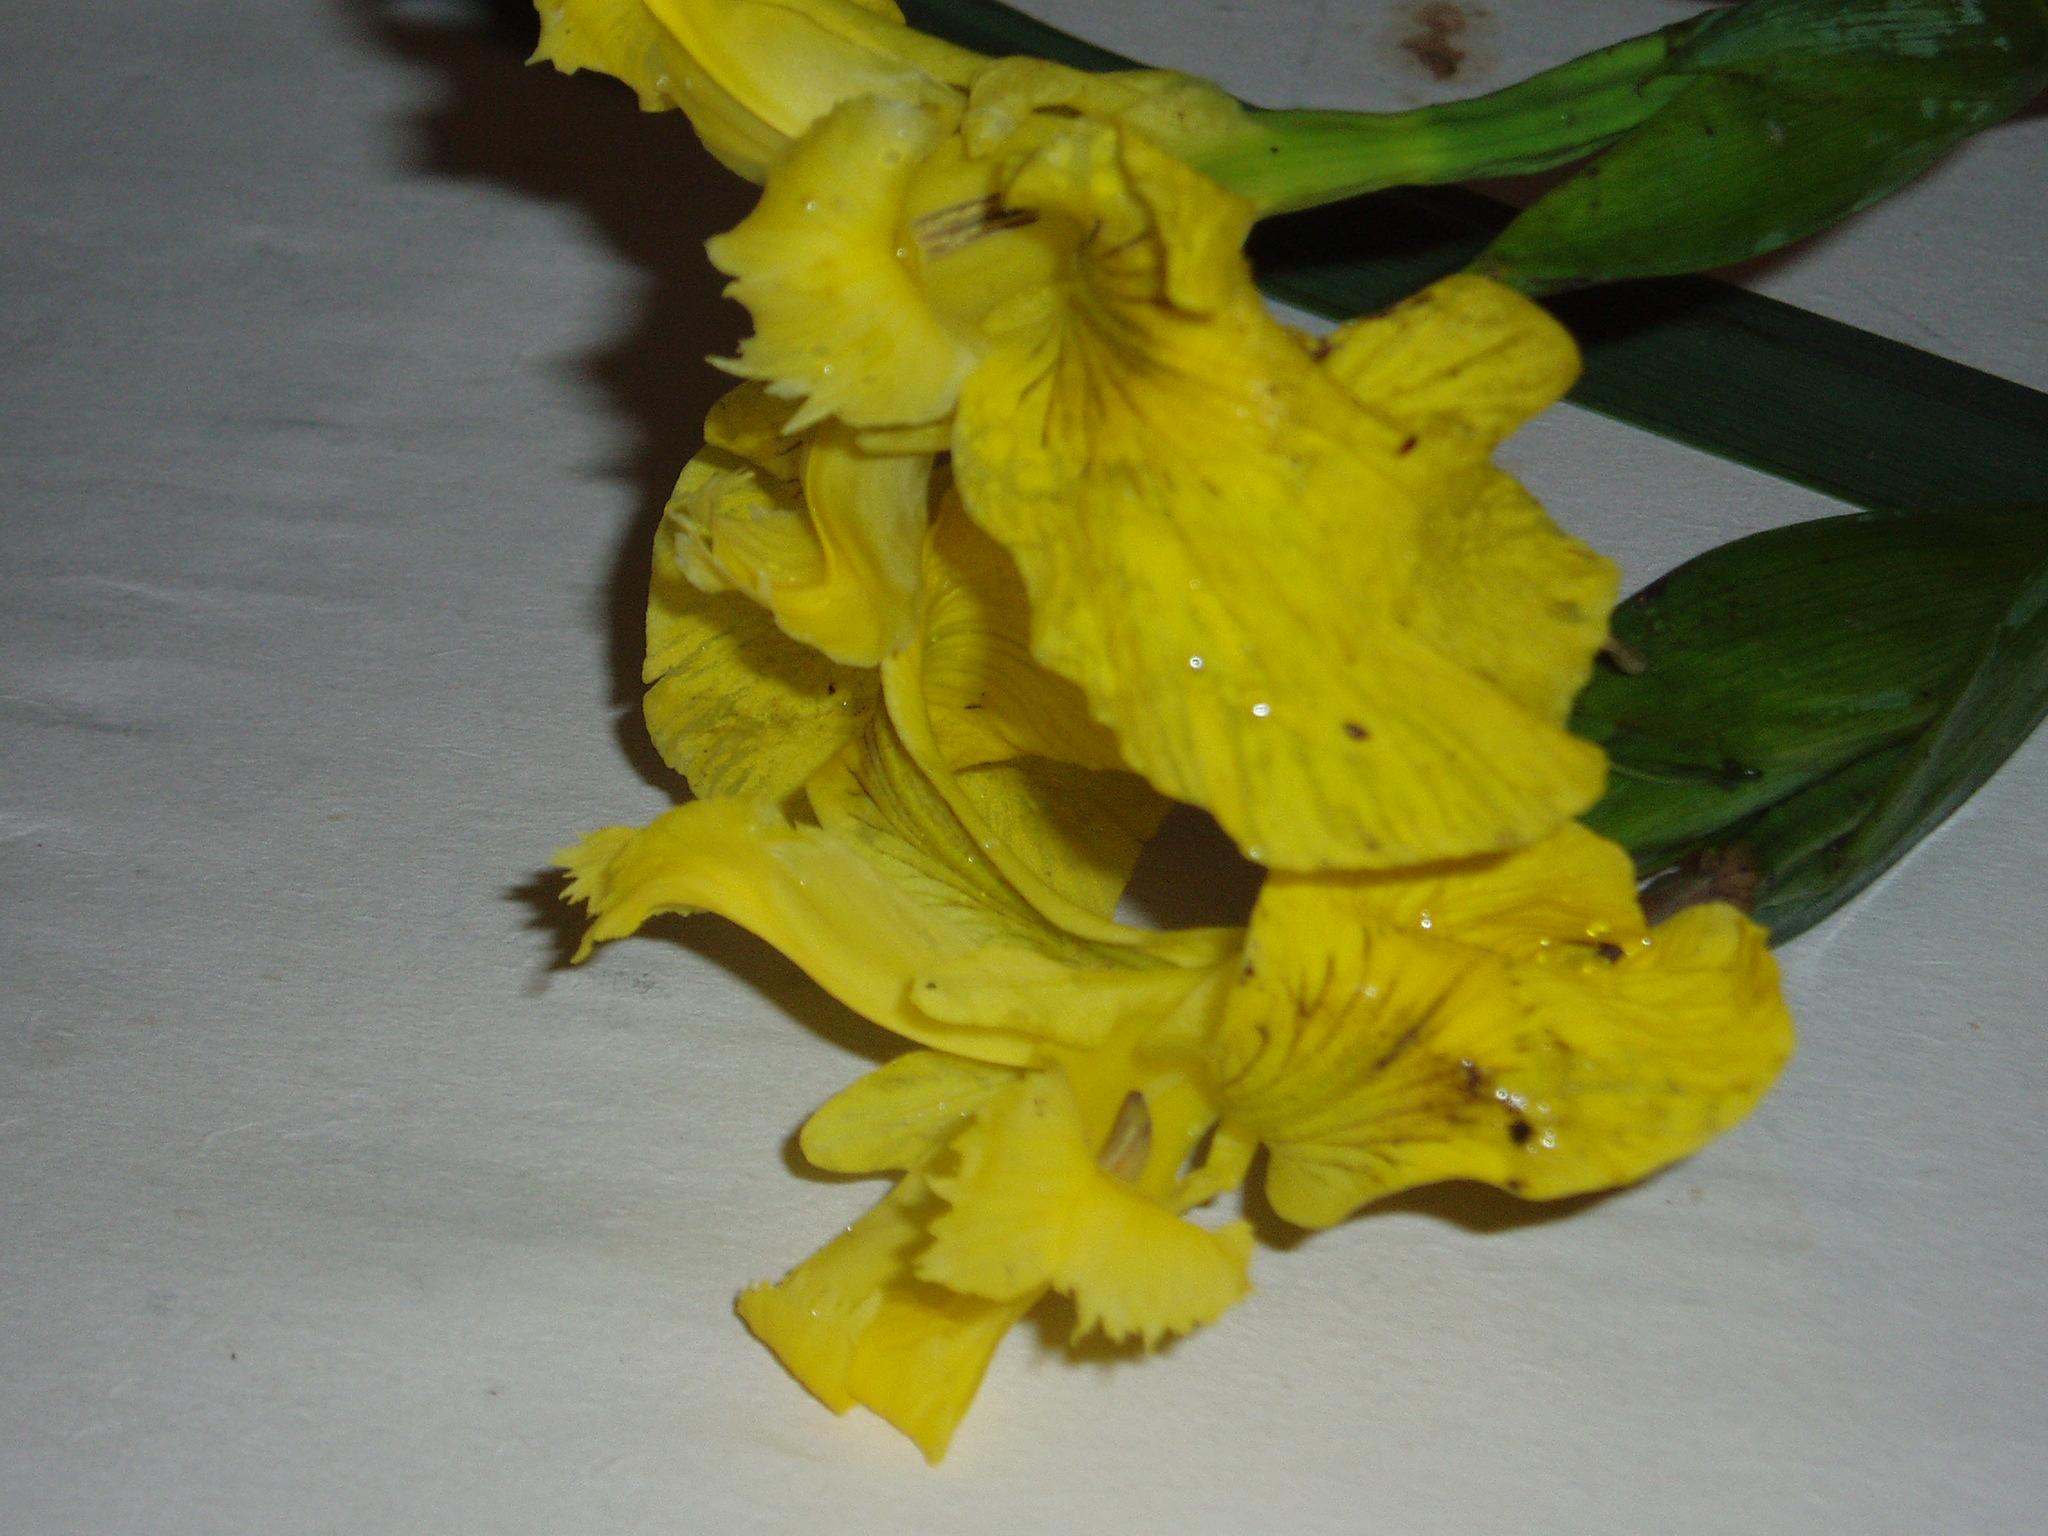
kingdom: Plantae
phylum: Tracheophyta
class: Liliopsida
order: Asparagales
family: Iridaceae
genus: Iris
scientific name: Iris pseudacorus
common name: Yellow flag
